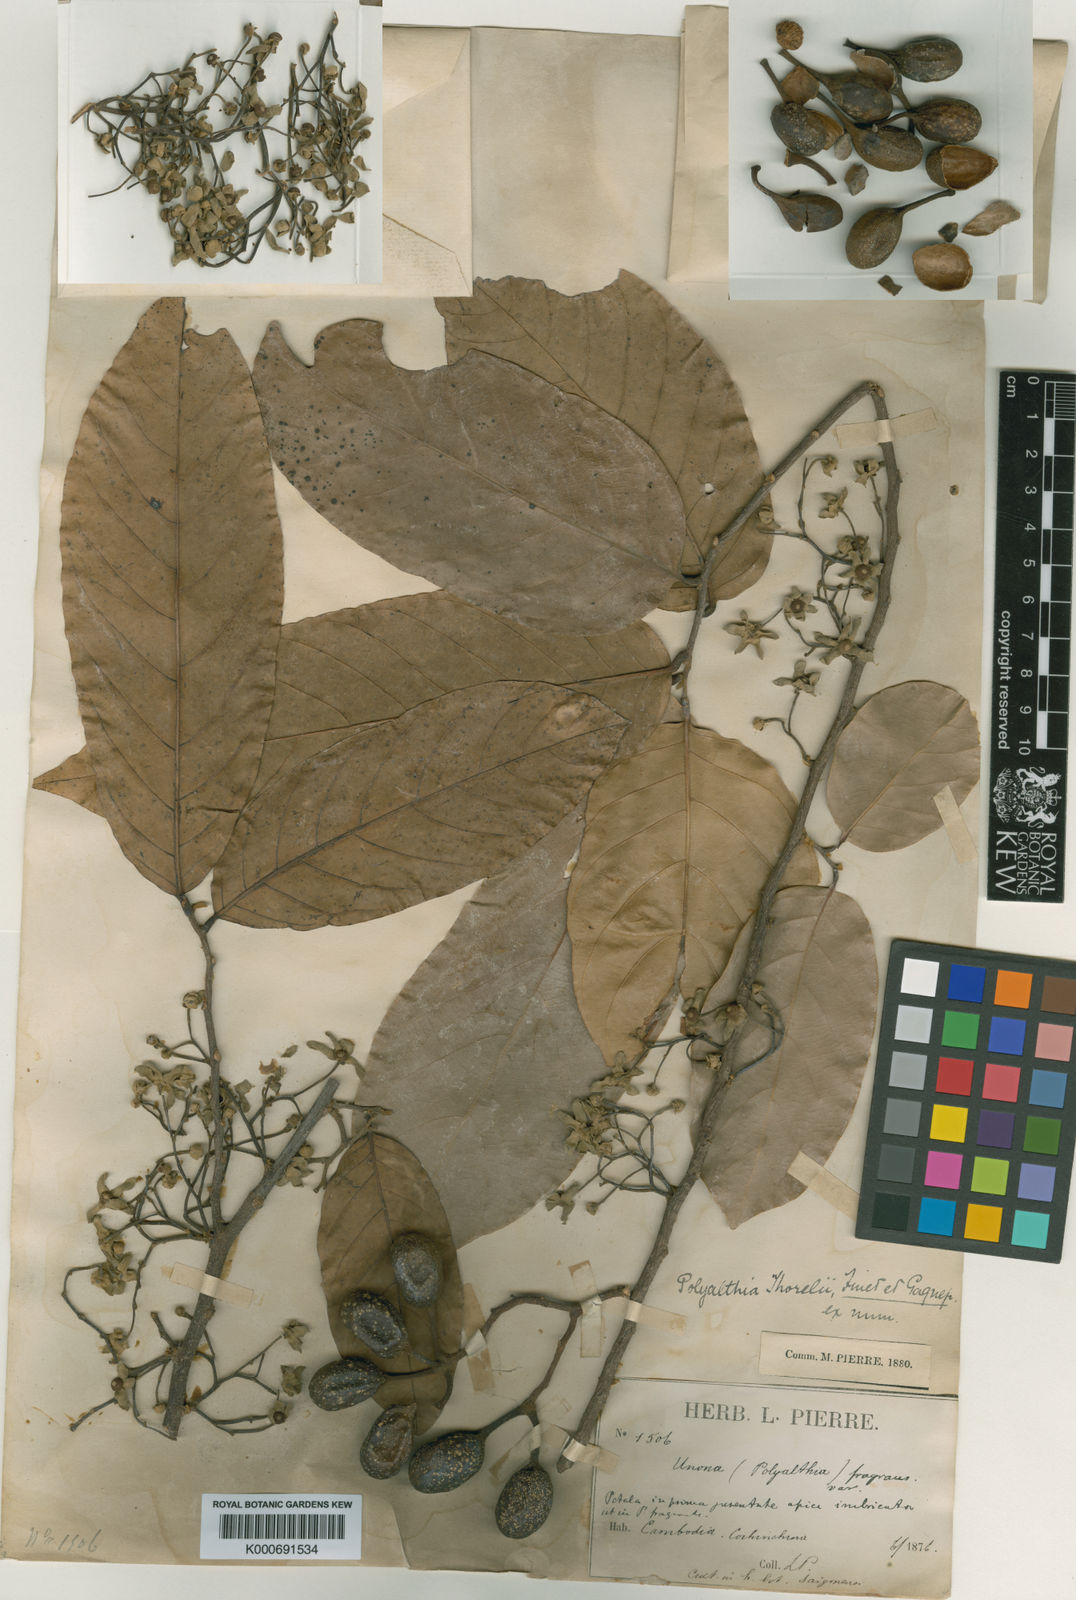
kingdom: Plantae
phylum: Tracheophyta
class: Magnoliopsida
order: Magnoliales
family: Annonaceae
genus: Polyalthia
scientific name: Polyalthia thorelii
